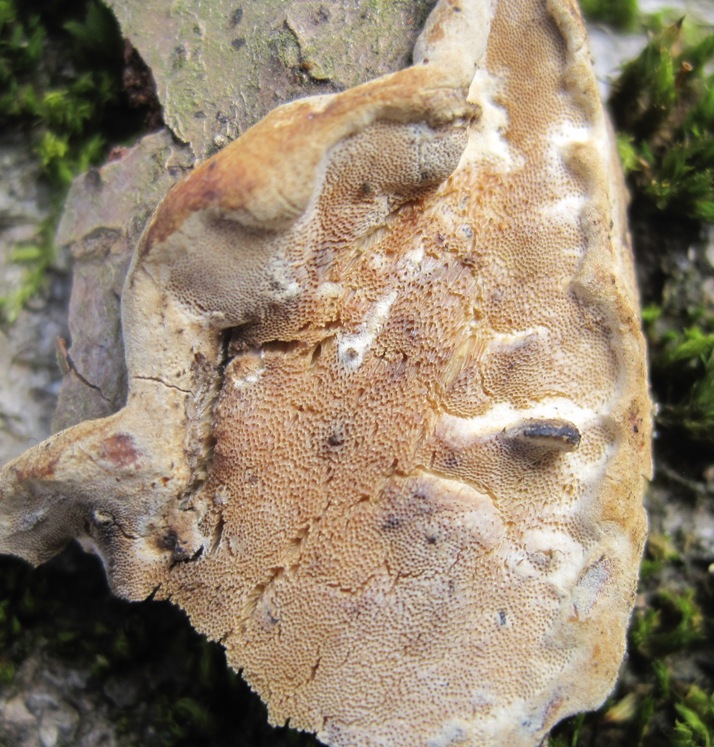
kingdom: Fungi
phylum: Basidiomycota
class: Agaricomycetes
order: Polyporales
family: Phanerochaetaceae
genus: Bjerkandera
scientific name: Bjerkandera fumosa
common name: grågul sodporesvamp
